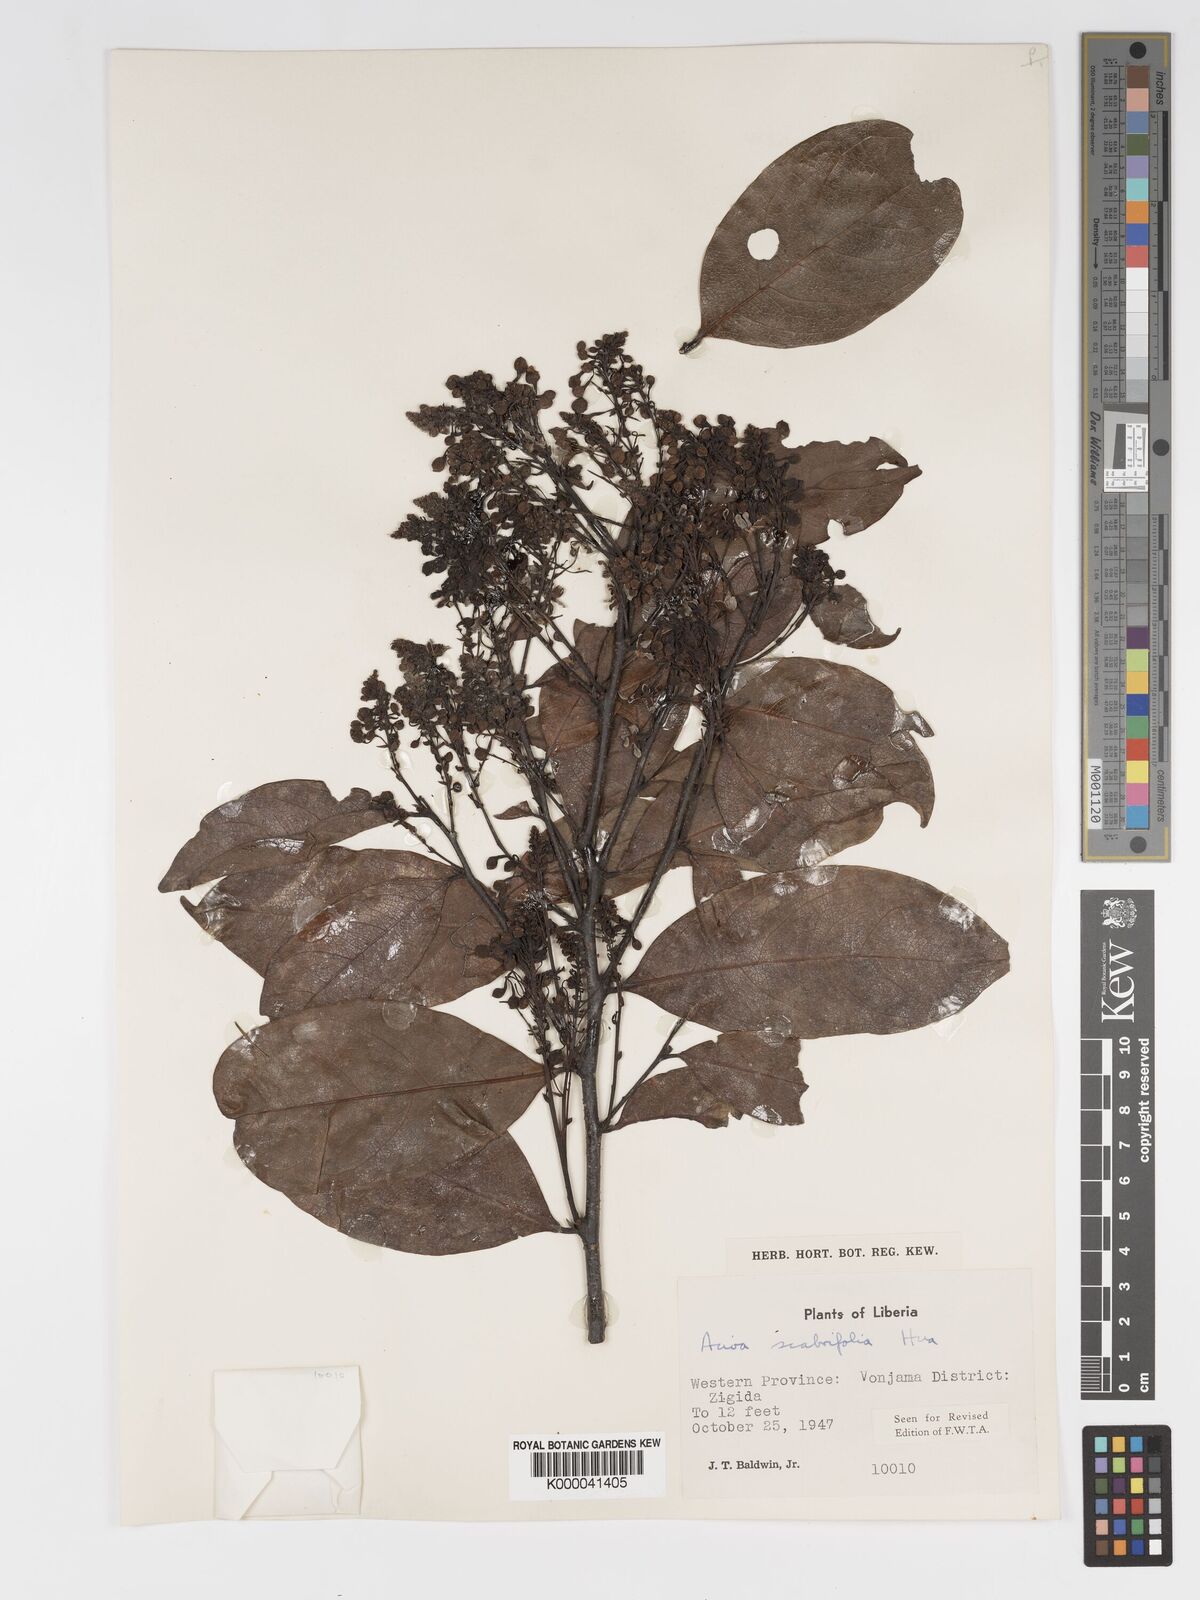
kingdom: Plantae
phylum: Tracheophyta
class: Magnoliopsida
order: Malpighiales
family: Chrysobalanaceae
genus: Dactyladenia
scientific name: Dactyladenia scabrifolia
